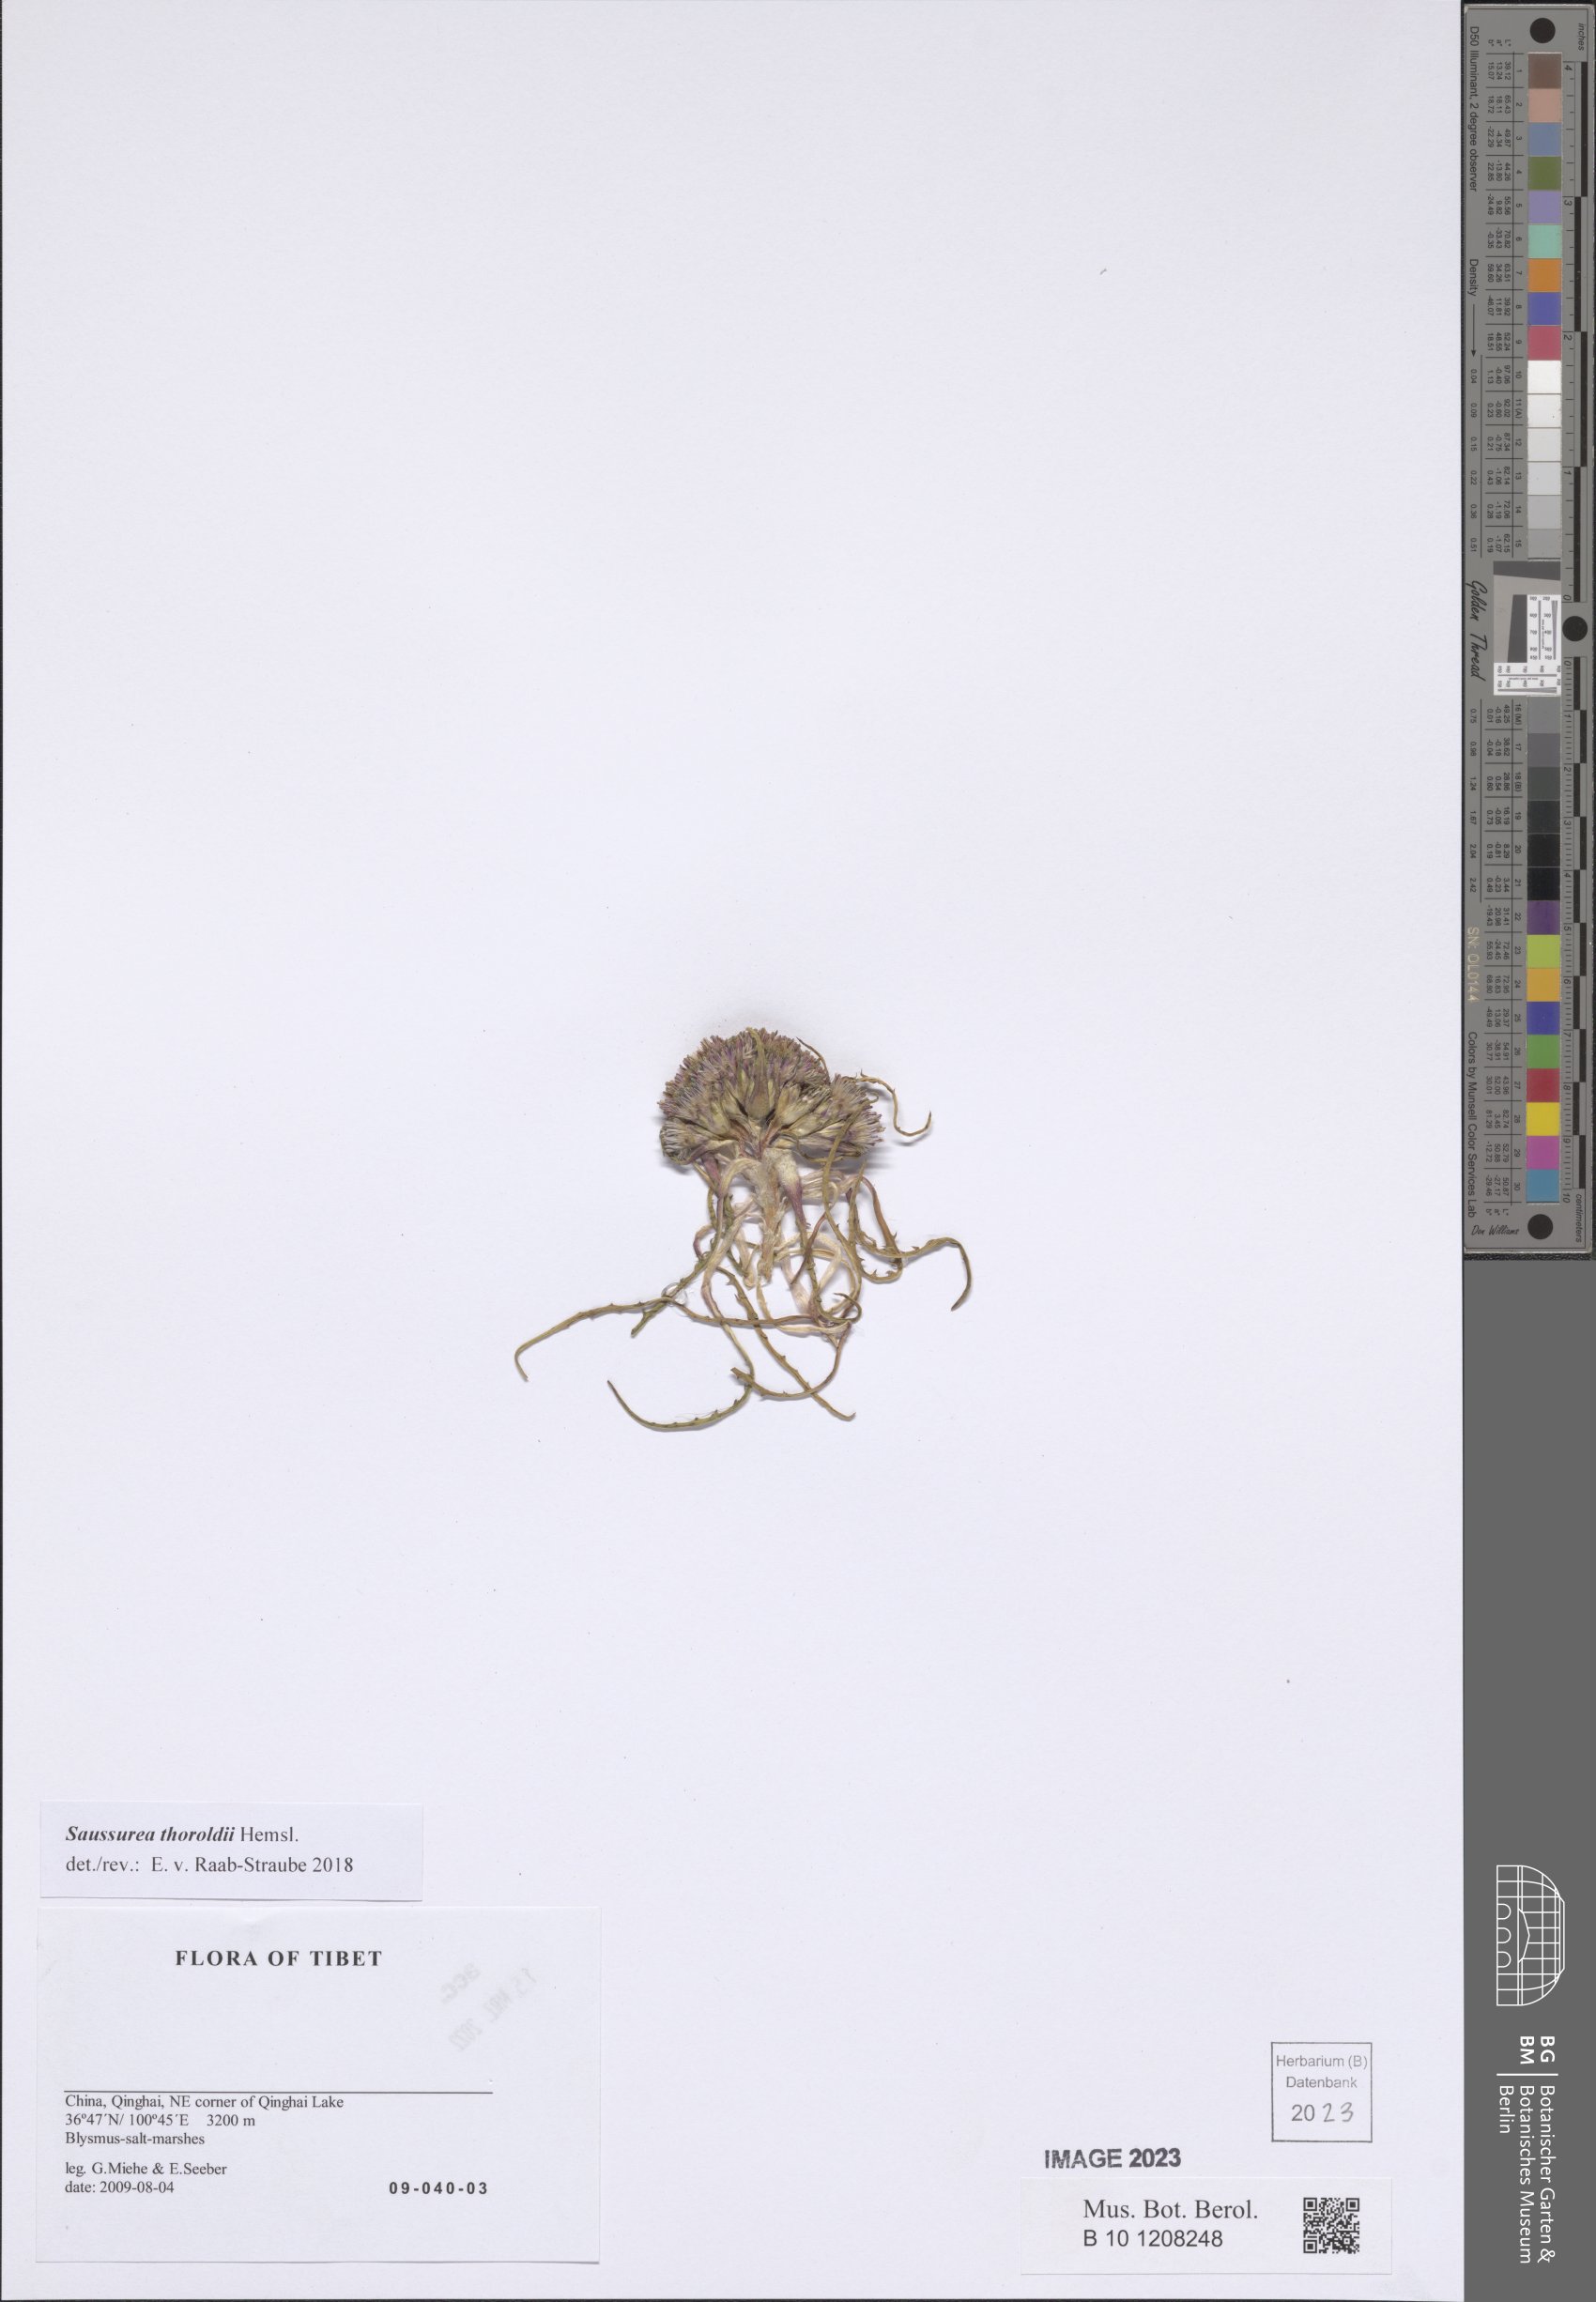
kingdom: Plantae
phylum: Tracheophyta
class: Magnoliopsida
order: Asterales
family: Asteraceae
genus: Saussurea
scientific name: Saussurea thoroldii
